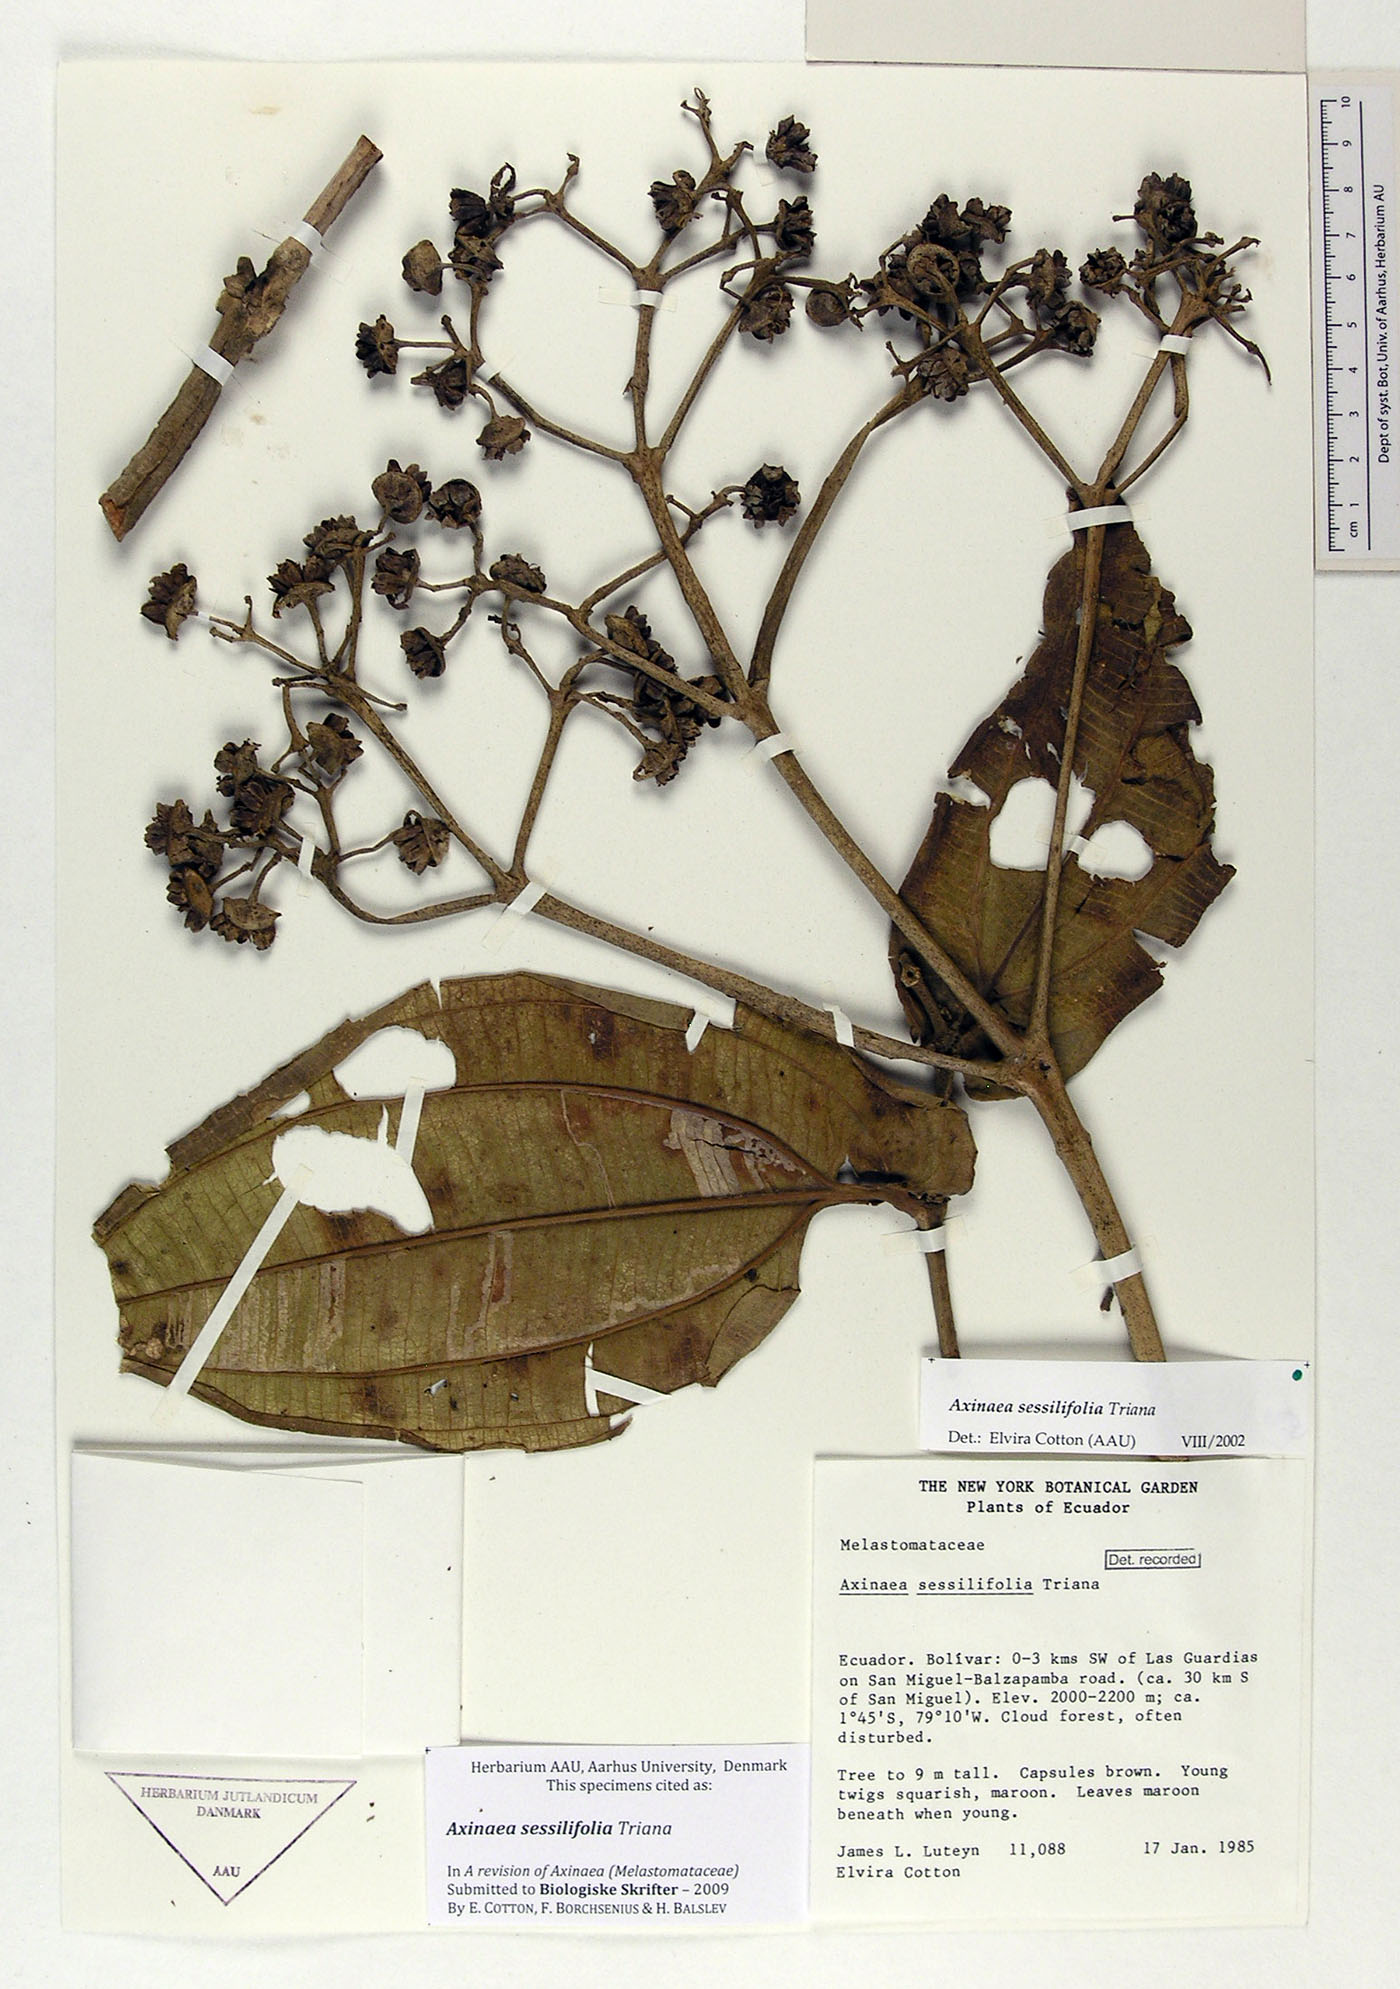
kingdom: Plantae
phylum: Tracheophyta
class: Magnoliopsida
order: Myrtales
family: Melastomataceae
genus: Axinaea
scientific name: Axinaea sessilifolia
